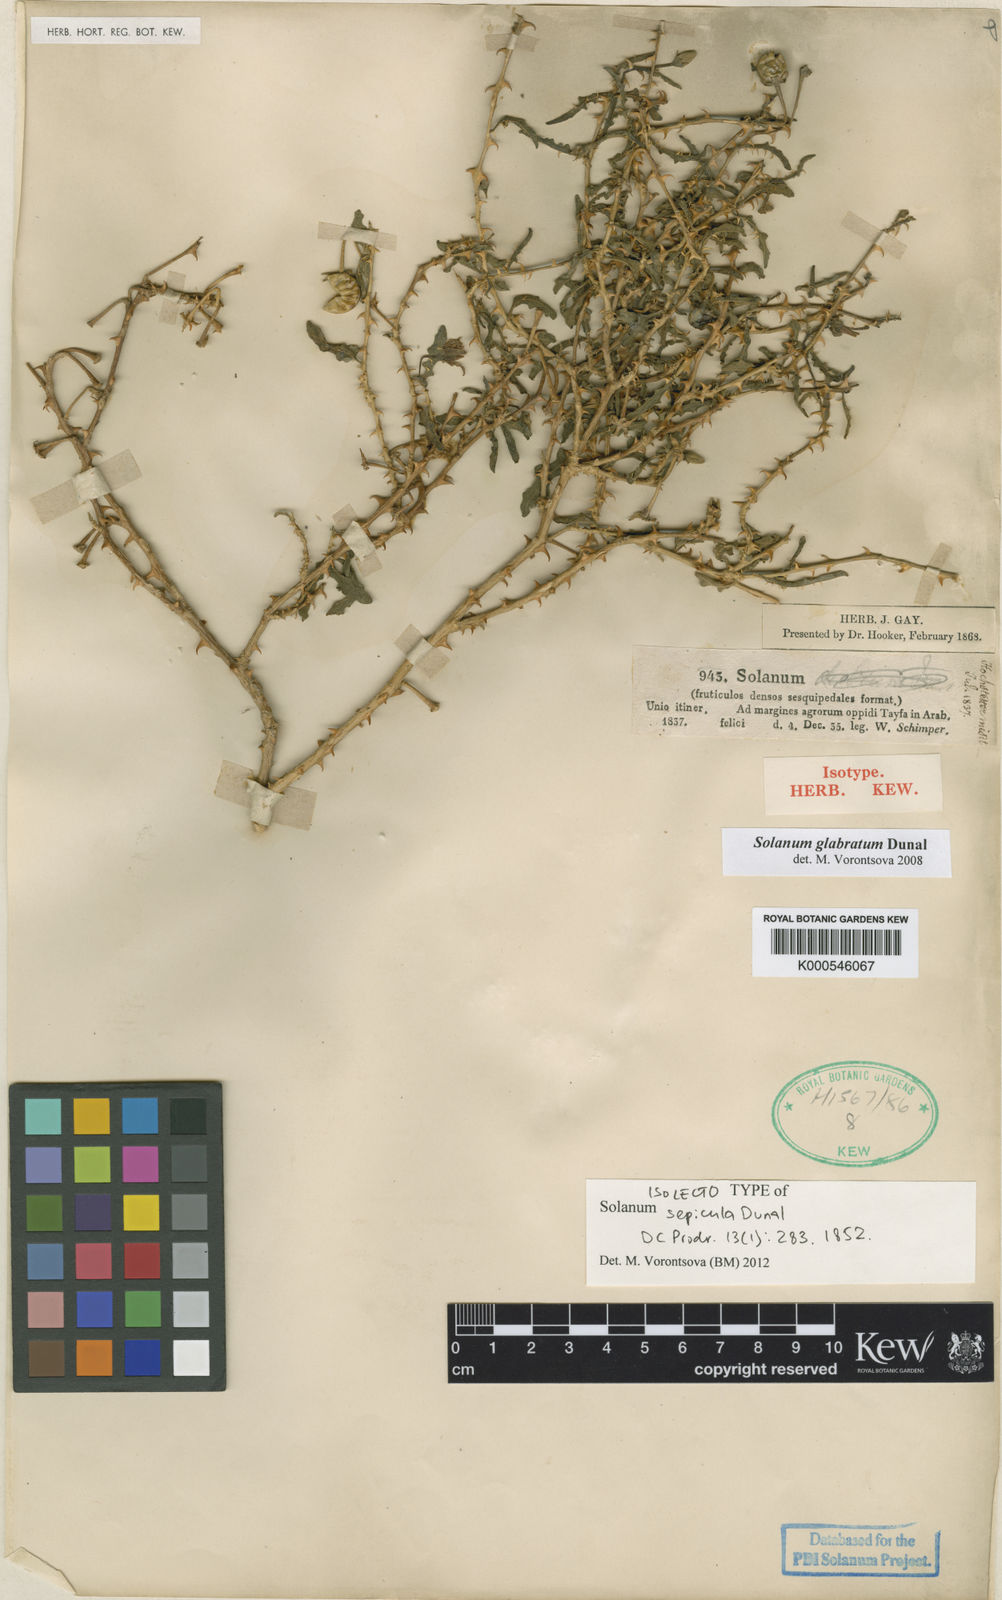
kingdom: Plantae
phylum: Tracheophyta
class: Magnoliopsida
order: Solanales
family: Solanaceae
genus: Solanum
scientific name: Solanum glabratum
